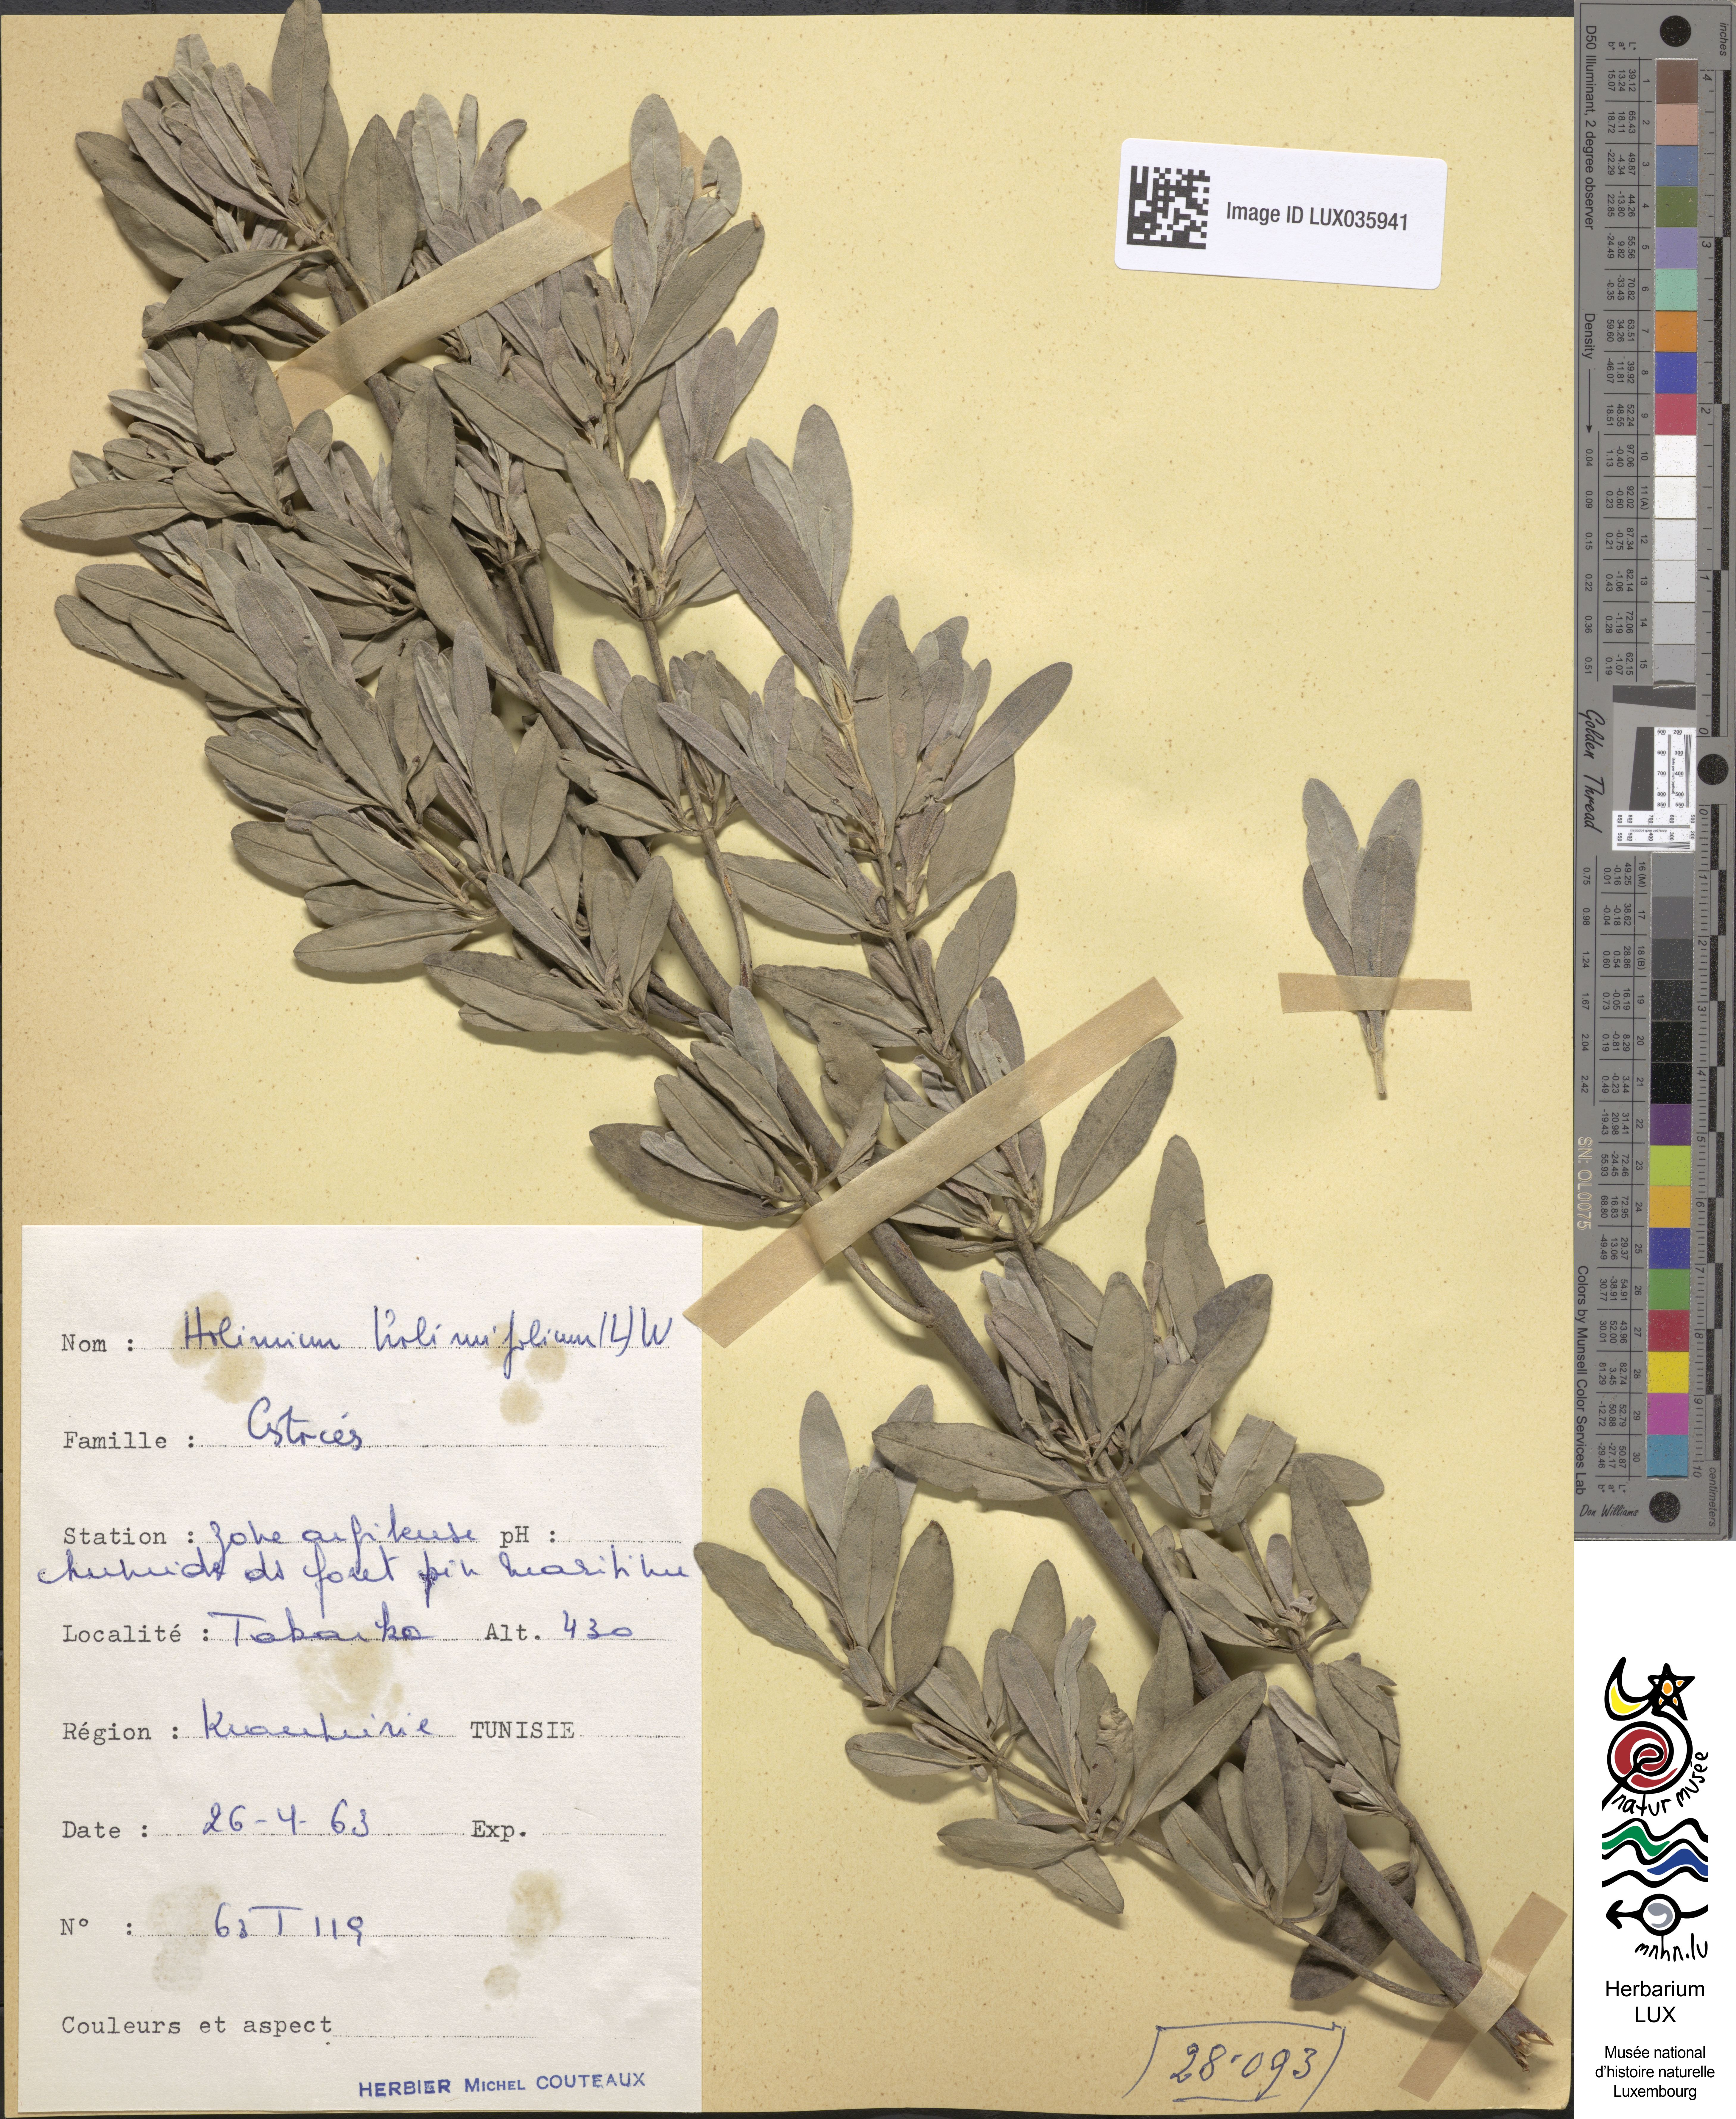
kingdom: Plantae
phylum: Tracheophyta
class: Magnoliopsida
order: Malvales
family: Cistaceae
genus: Halimium
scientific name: Halimium halimifolium
